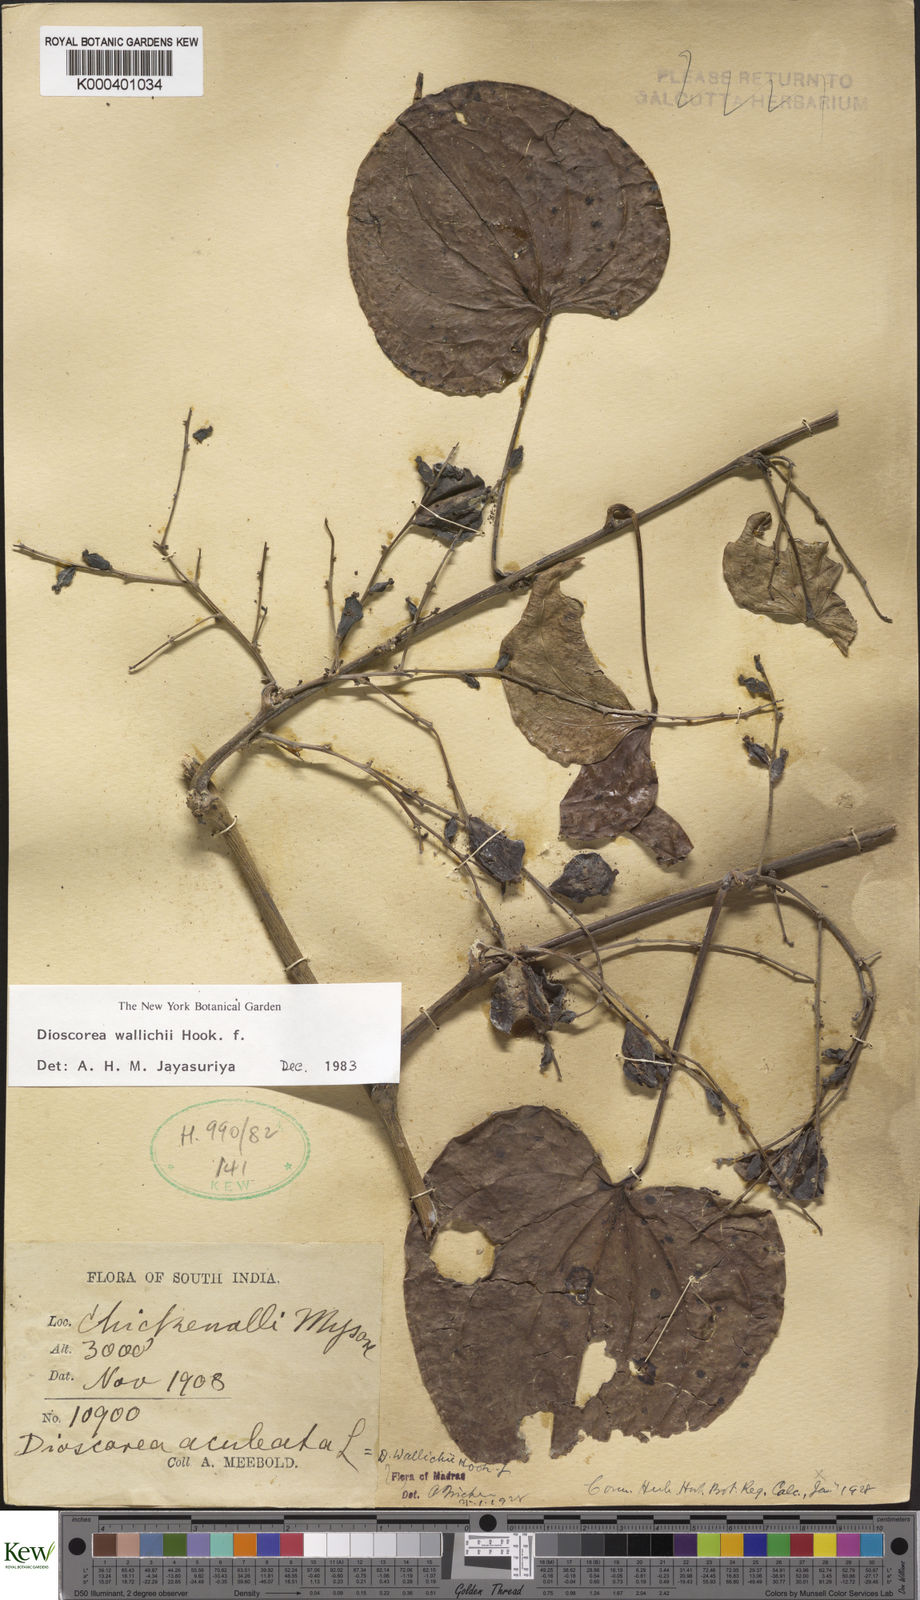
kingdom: Plantae
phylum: Tracheophyta
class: Liliopsida
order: Dioscoreales
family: Dioscoreaceae
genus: Dioscorea
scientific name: Dioscorea wallichii
